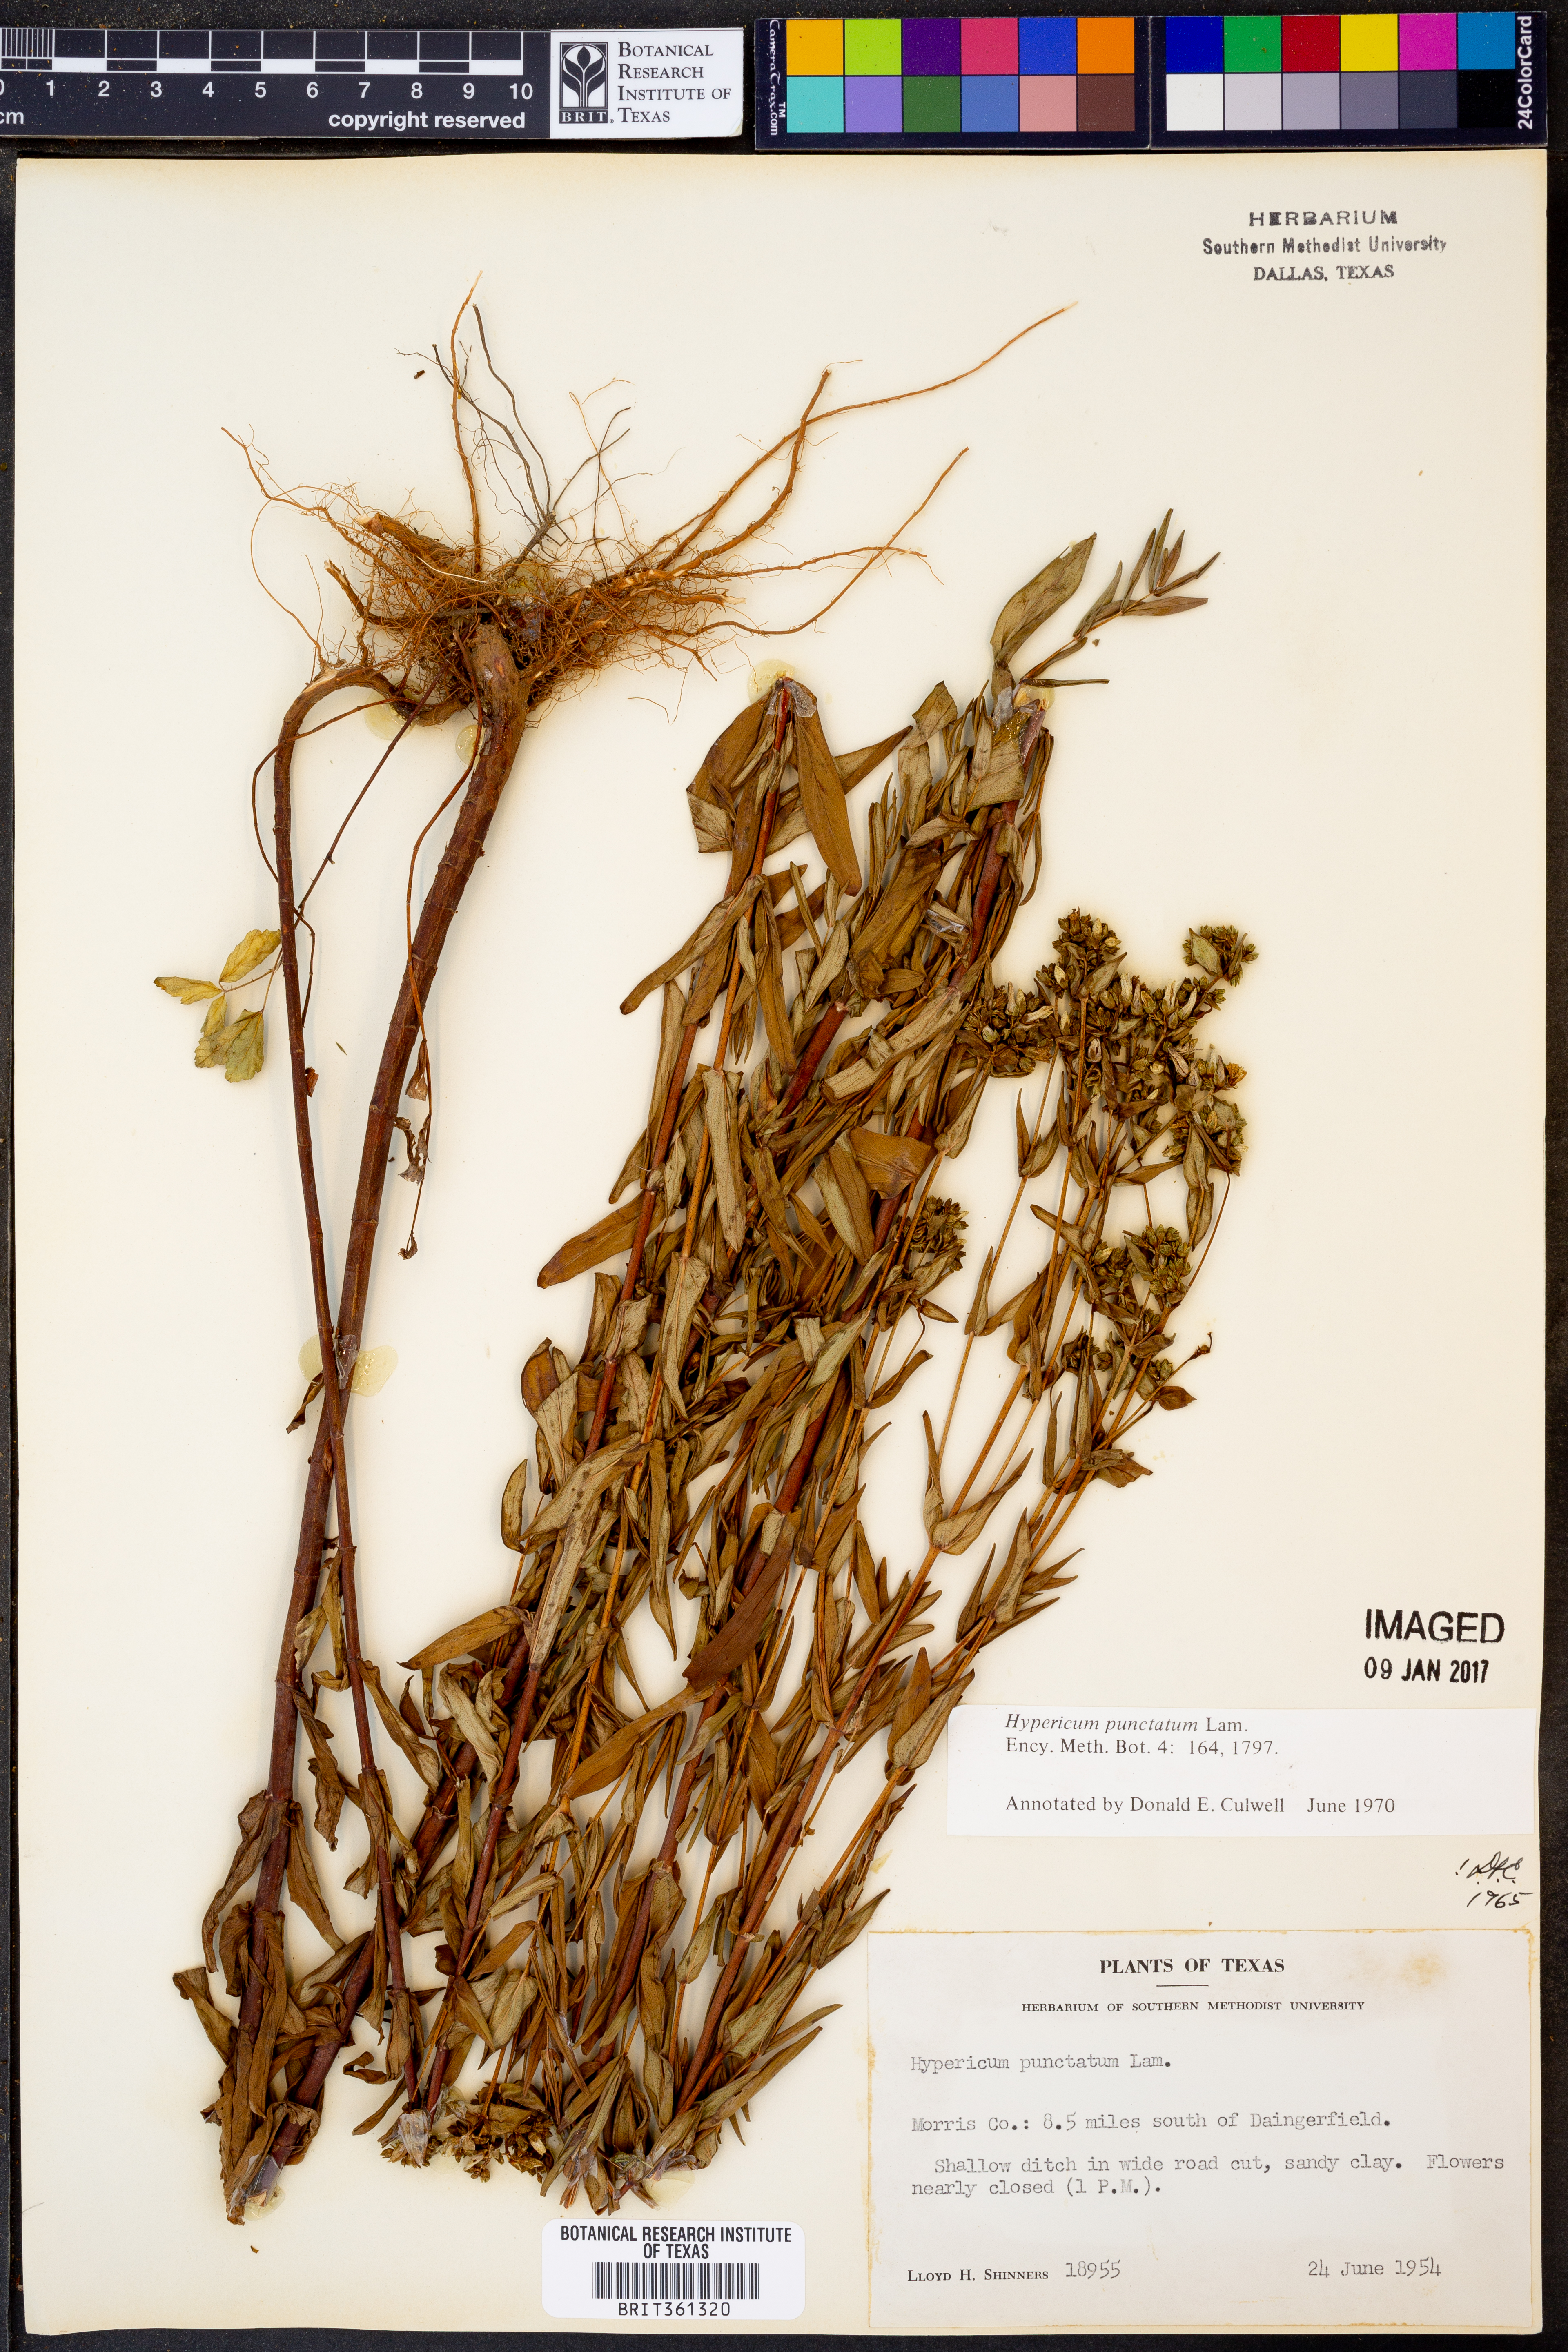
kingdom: Plantae
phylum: Tracheophyta
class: Magnoliopsida
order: Malpighiales
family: Hypericaceae
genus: Hypericum
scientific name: Hypericum punctatum
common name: Spotted st. john's-wort
